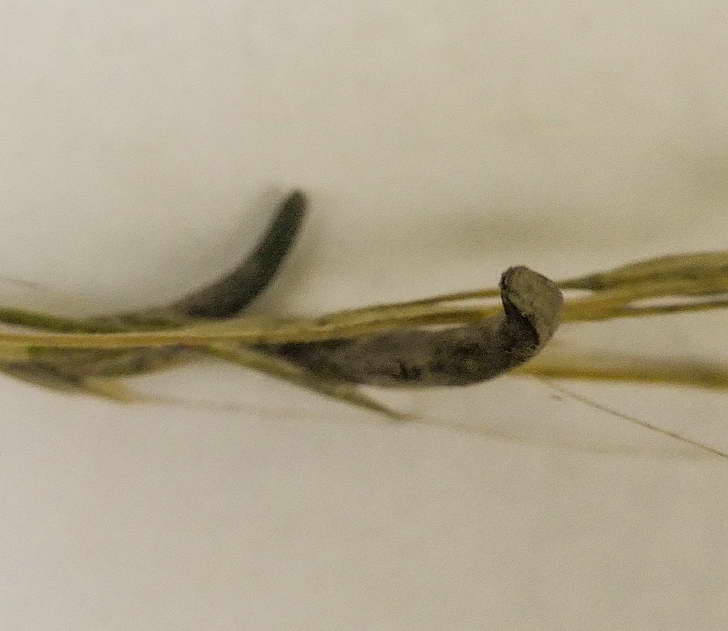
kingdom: Fungi
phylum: Ascomycota
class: Sordariomycetes
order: Hypocreales
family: Clavicipitaceae
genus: Claviceps
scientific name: Claviceps purpurea
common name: almindelig meldrøjer
